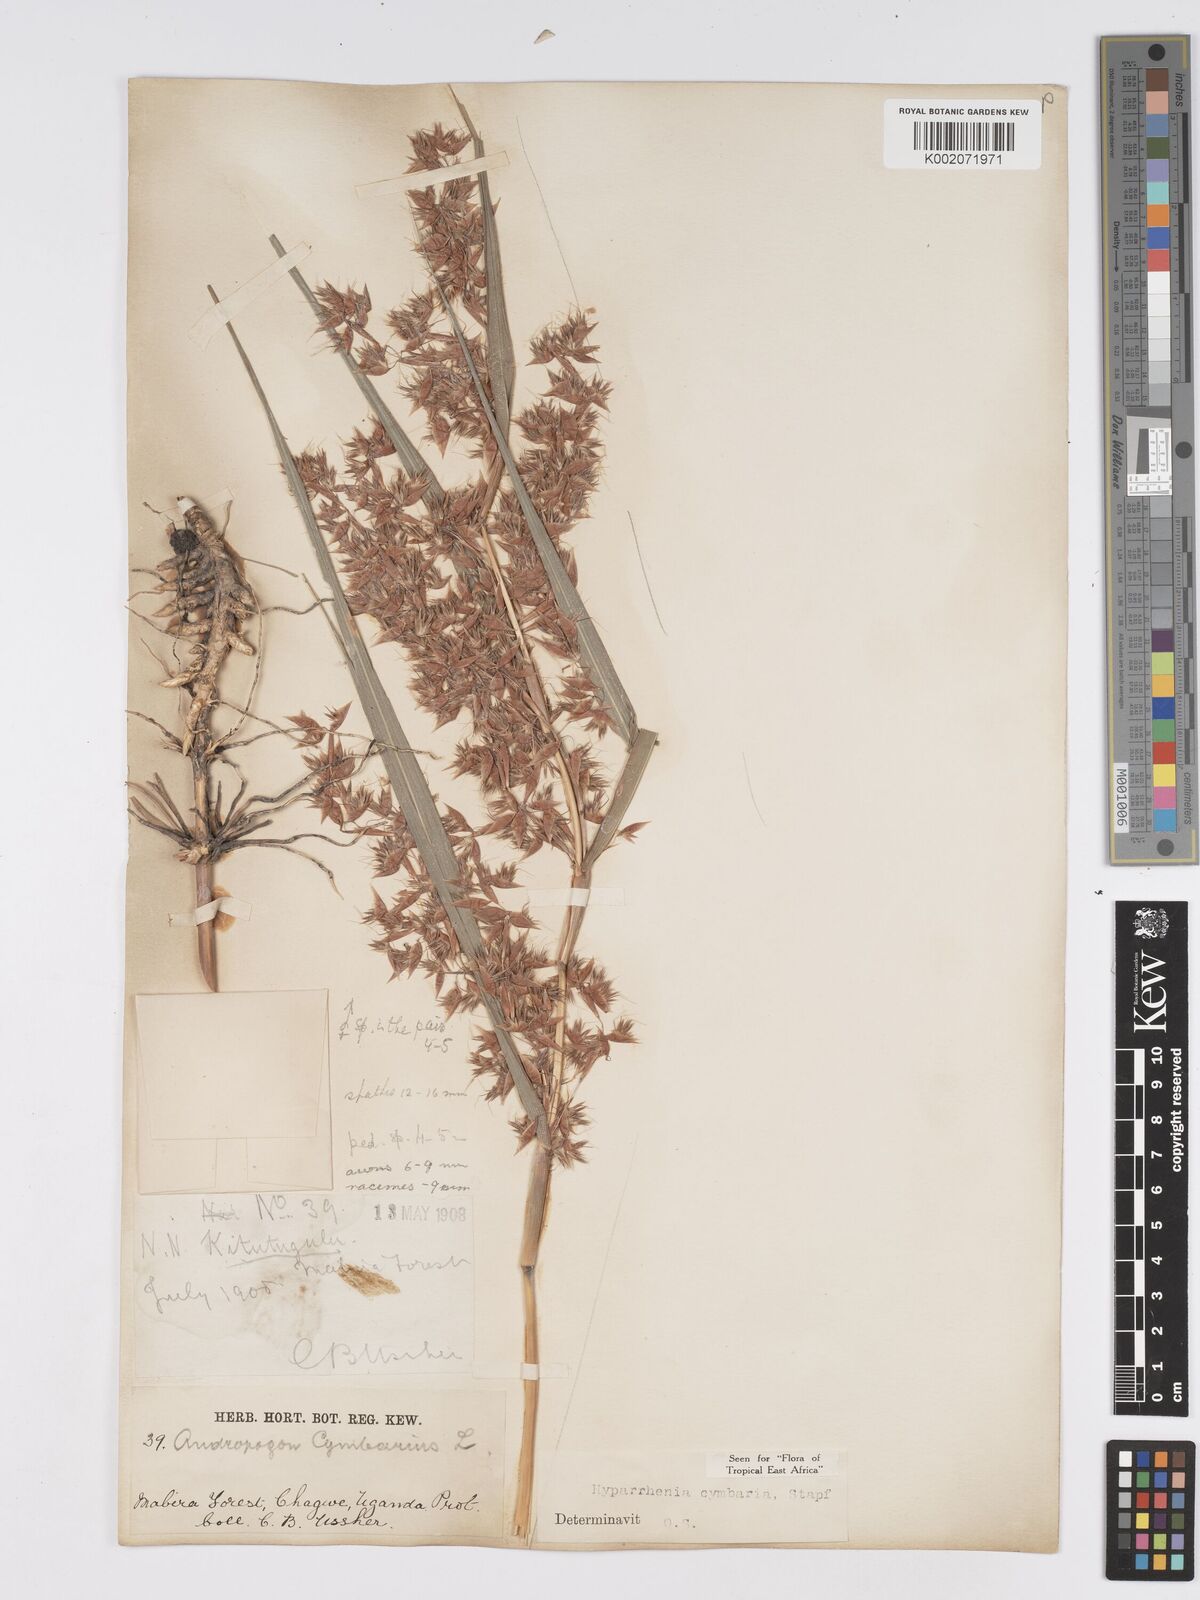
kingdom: Plantae
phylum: Tracheophyta
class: Liliopsida
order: Poales
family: Poaceae
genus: Hyparrhenia
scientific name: Hyparrhenia cymbaria
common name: Boat thatching grass
